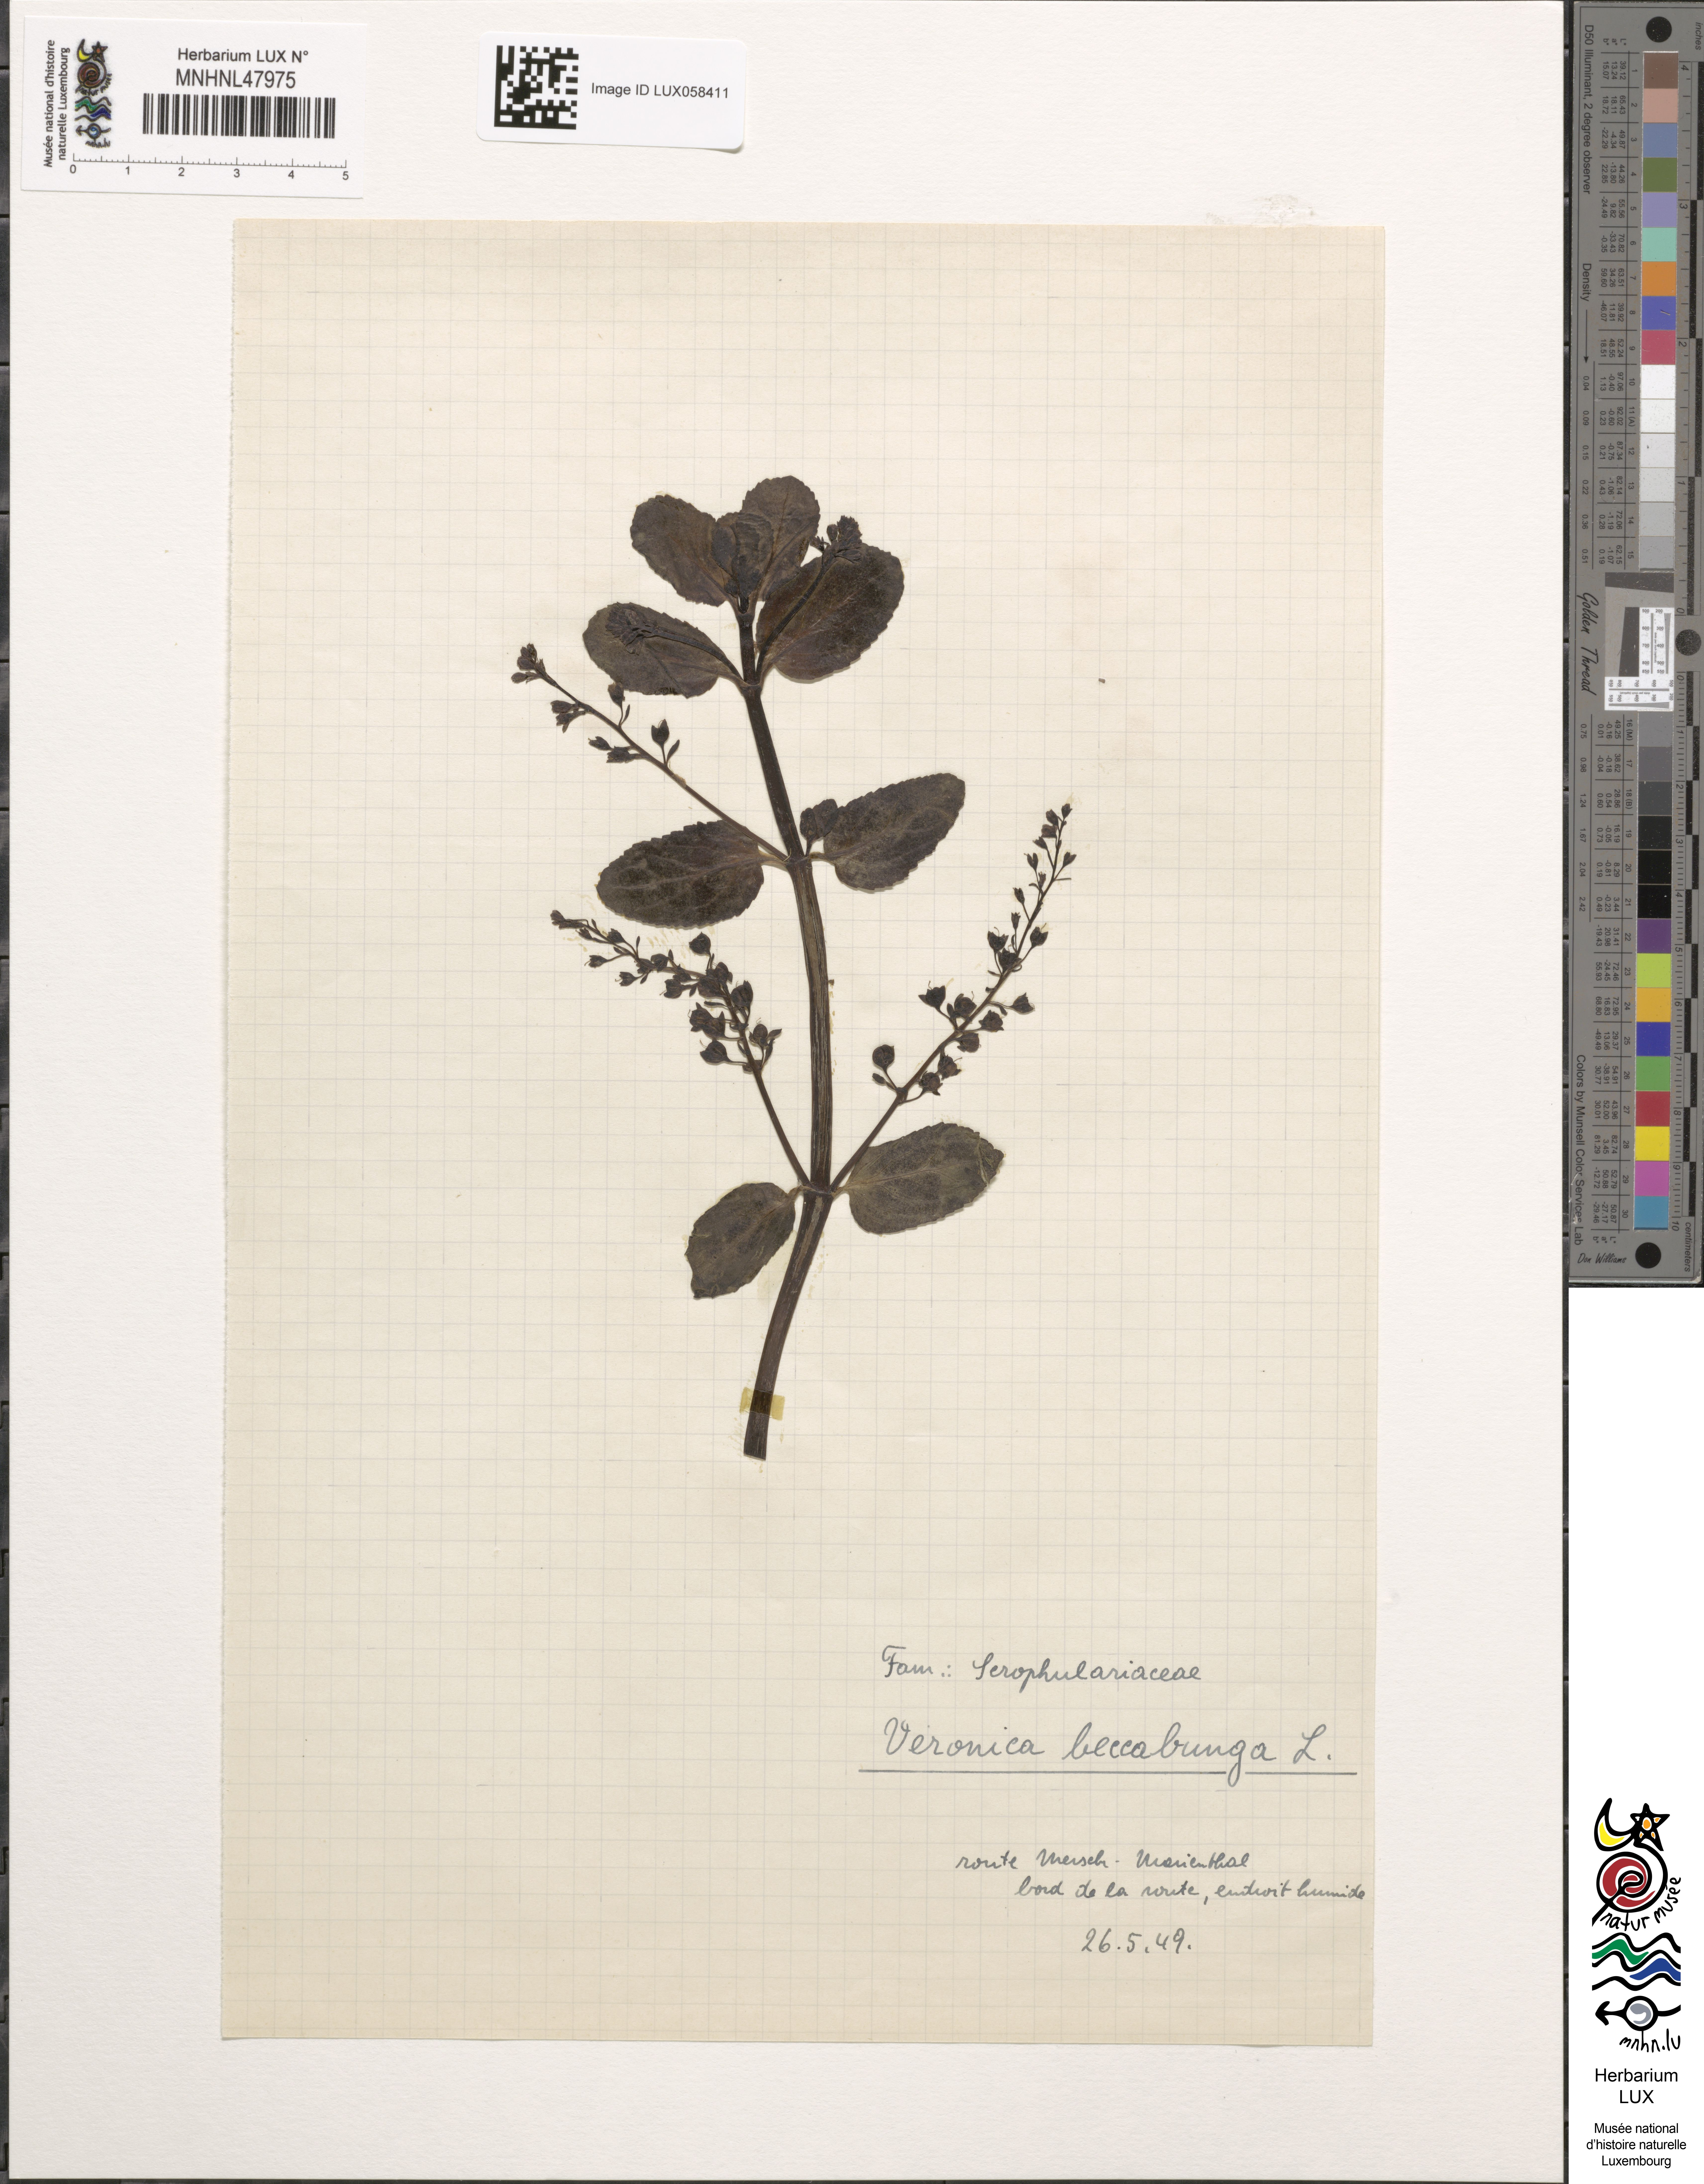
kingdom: Plantae
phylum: Tracheophyta
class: Magnoliopsida
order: Lamiales
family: Plantaginaceae
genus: Veronica
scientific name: Veronica beccabunga
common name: Brooklime
